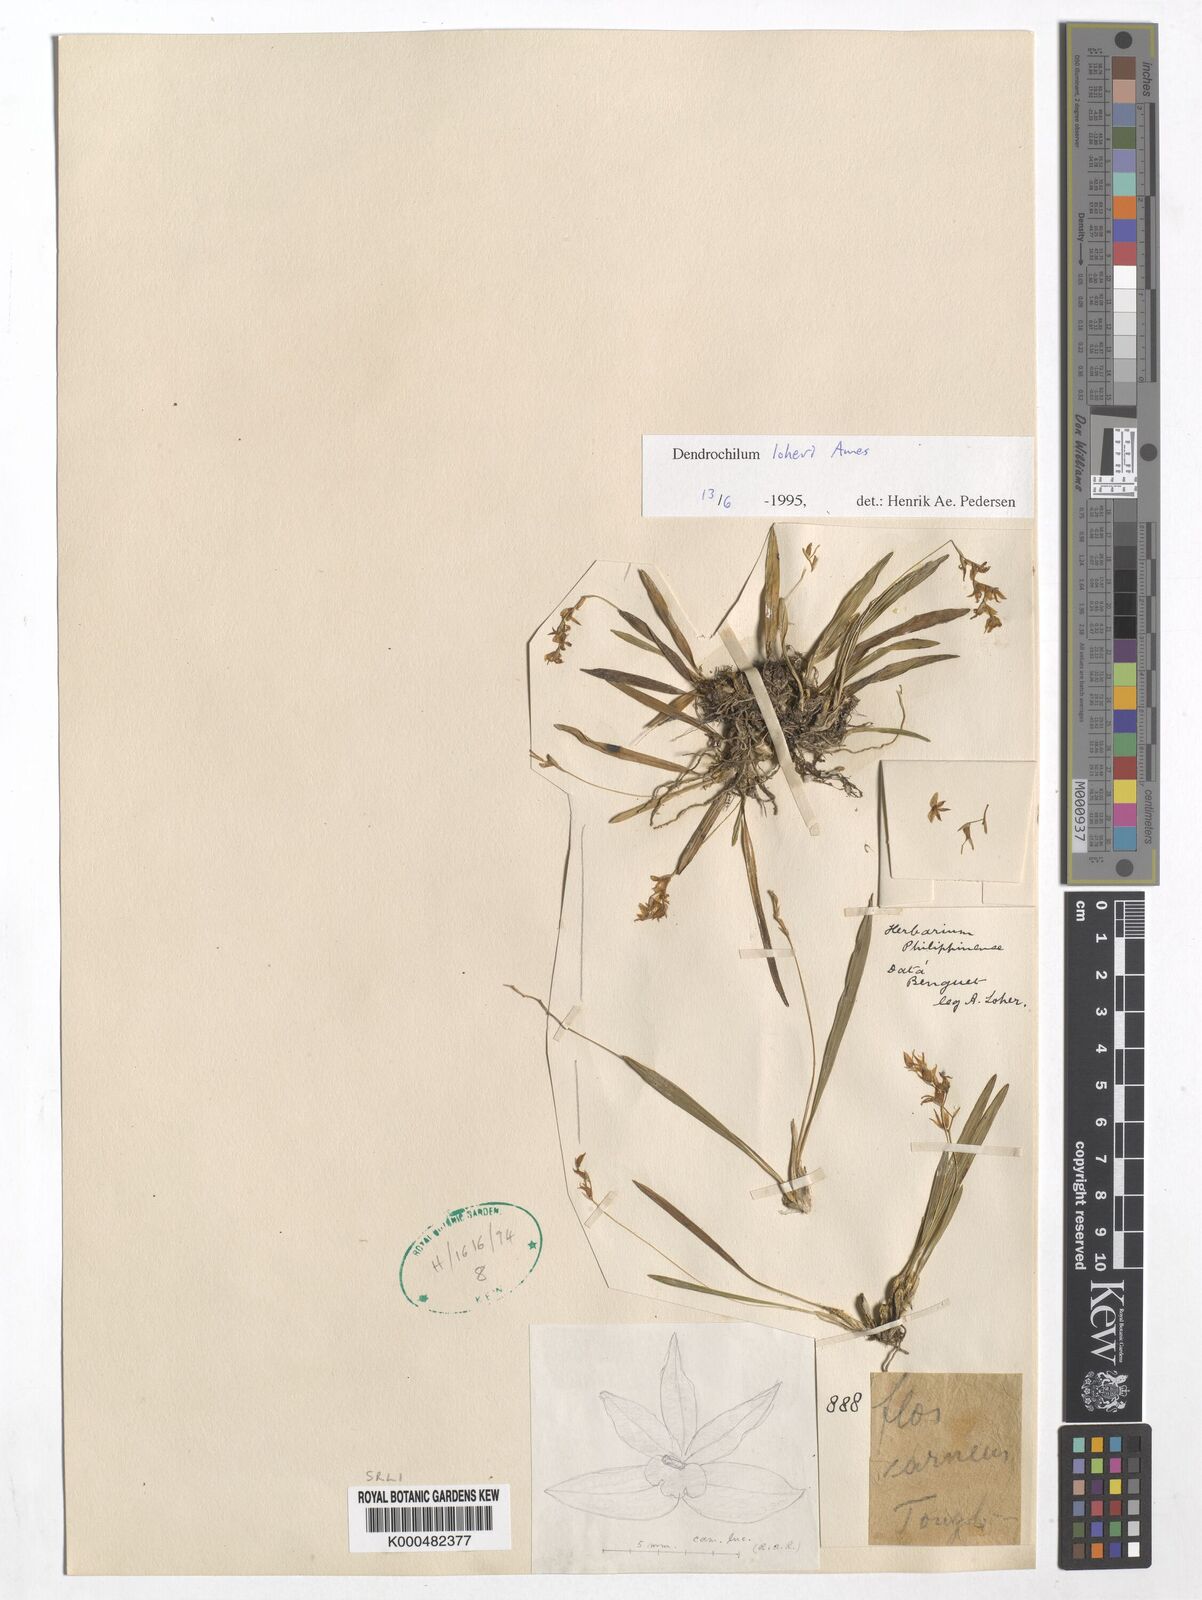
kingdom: Plantae
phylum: Tracheophyta
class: Liliopsida
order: Asparagales
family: Orchidaceae
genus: Coelogyne
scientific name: Coelogyne augustii
